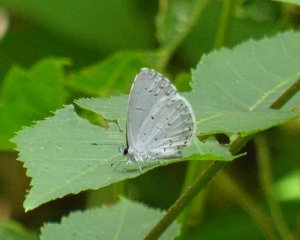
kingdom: Animalia
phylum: Arthropoda
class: Insecta
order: Lepidoptera
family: Lycaenidae
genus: Cyaniris
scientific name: Cyaniris neglecta
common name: Summer Azure
